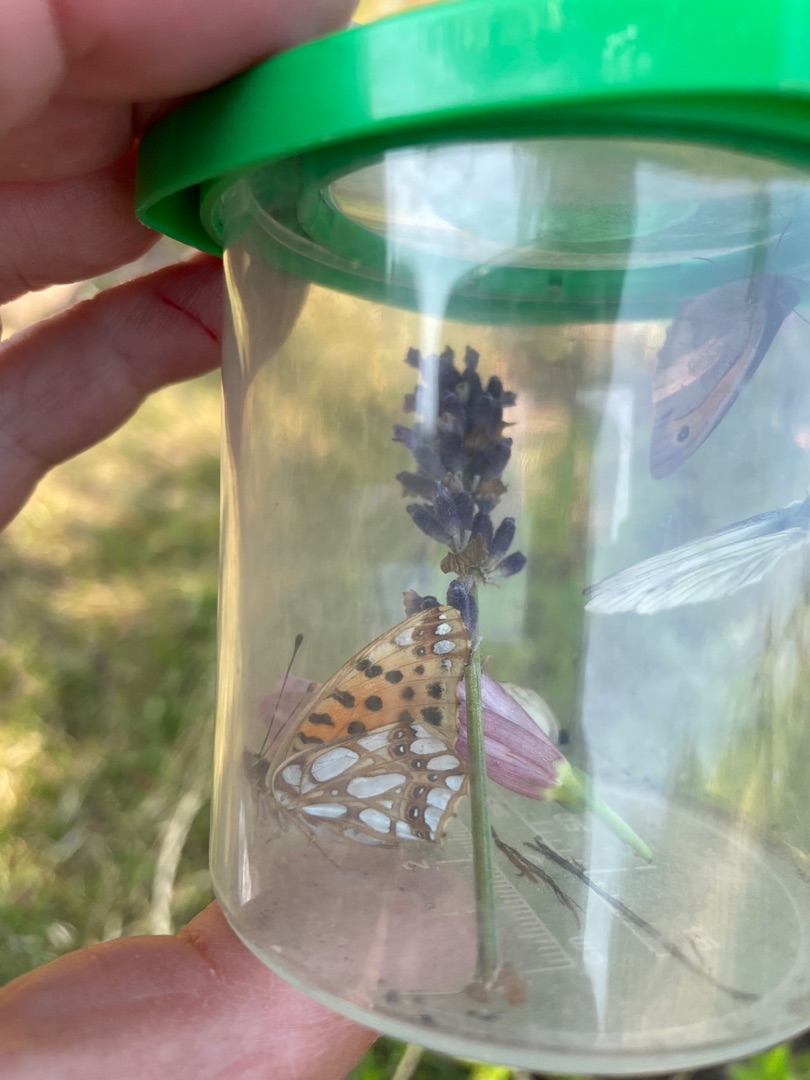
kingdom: Animalia
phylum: Arthropoda
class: Insecta
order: Lepidoptera
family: Nymphalidae
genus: Issoria
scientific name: Issoria lathonia
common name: Storplettet perlemorsommerfugl
